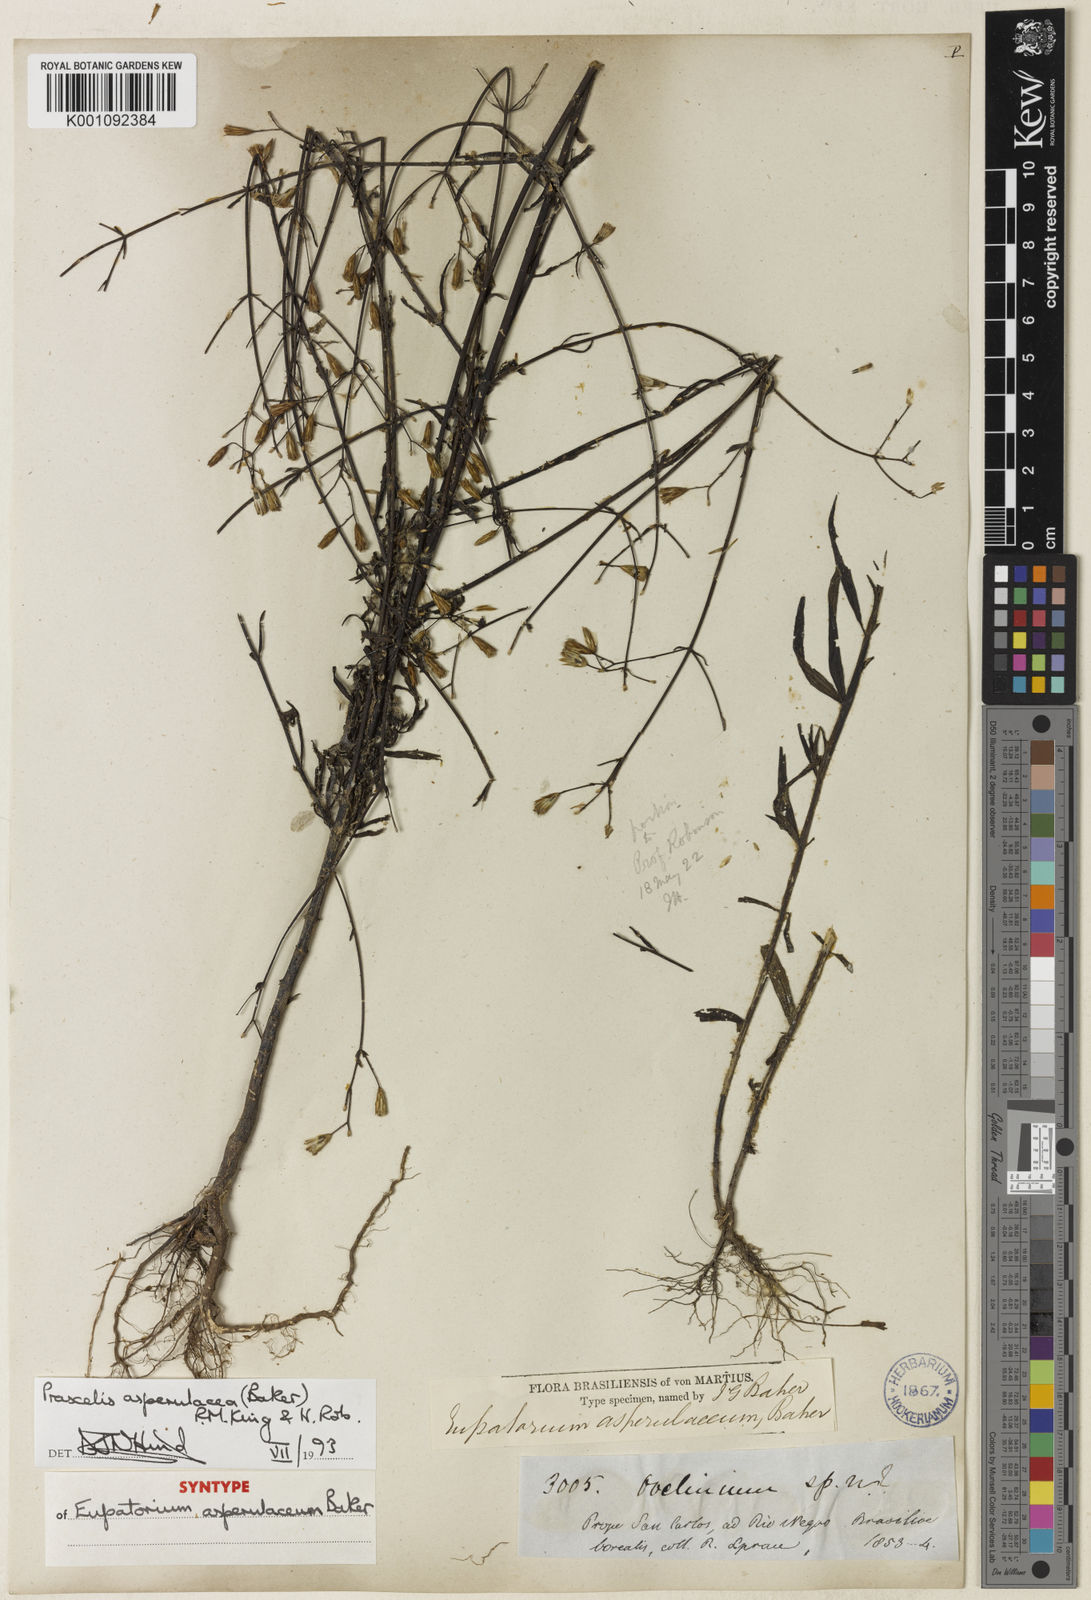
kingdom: Plantae
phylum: Tracheophyta
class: Magnoliopsida
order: Asterales
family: Asteraceae
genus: Praxelis
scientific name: Praxelis asperulacea
